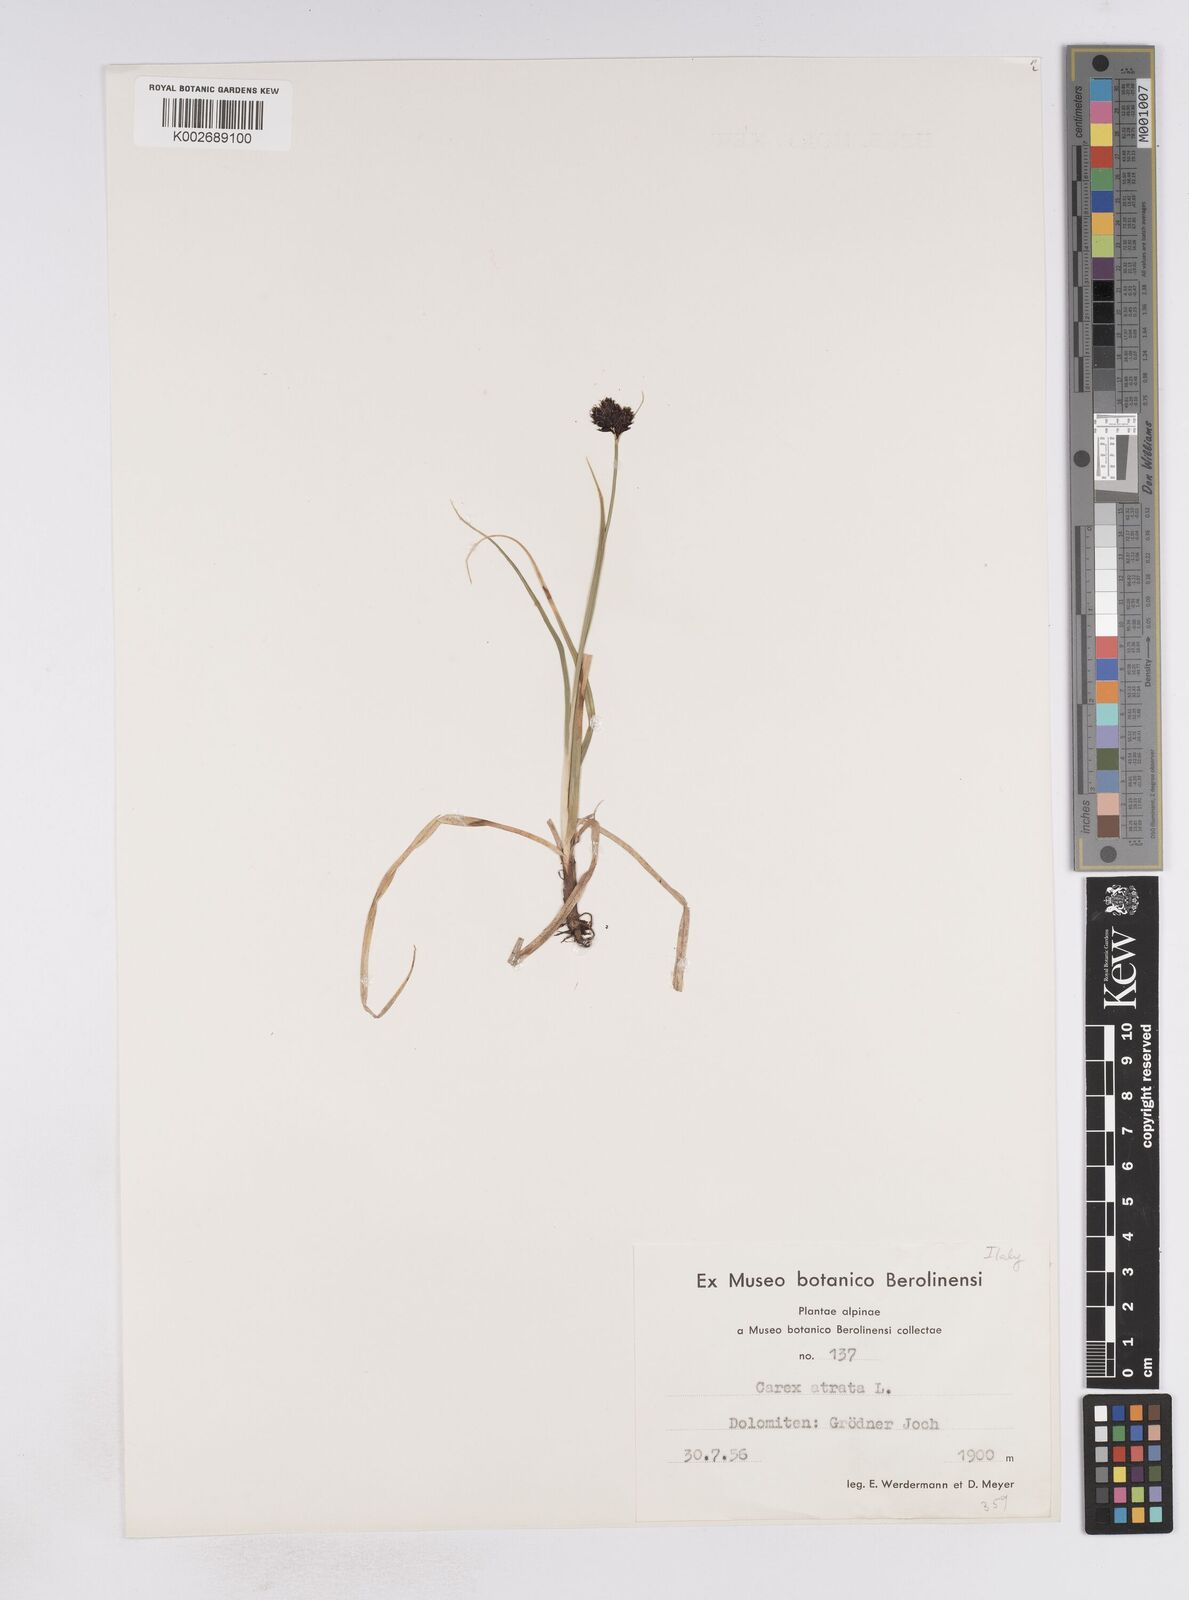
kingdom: Plantae
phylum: Tracheophyta
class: Liliopsida
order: Poales
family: Cyperaceae
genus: Carex
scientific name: Carex atrata
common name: Black alpine sedge
